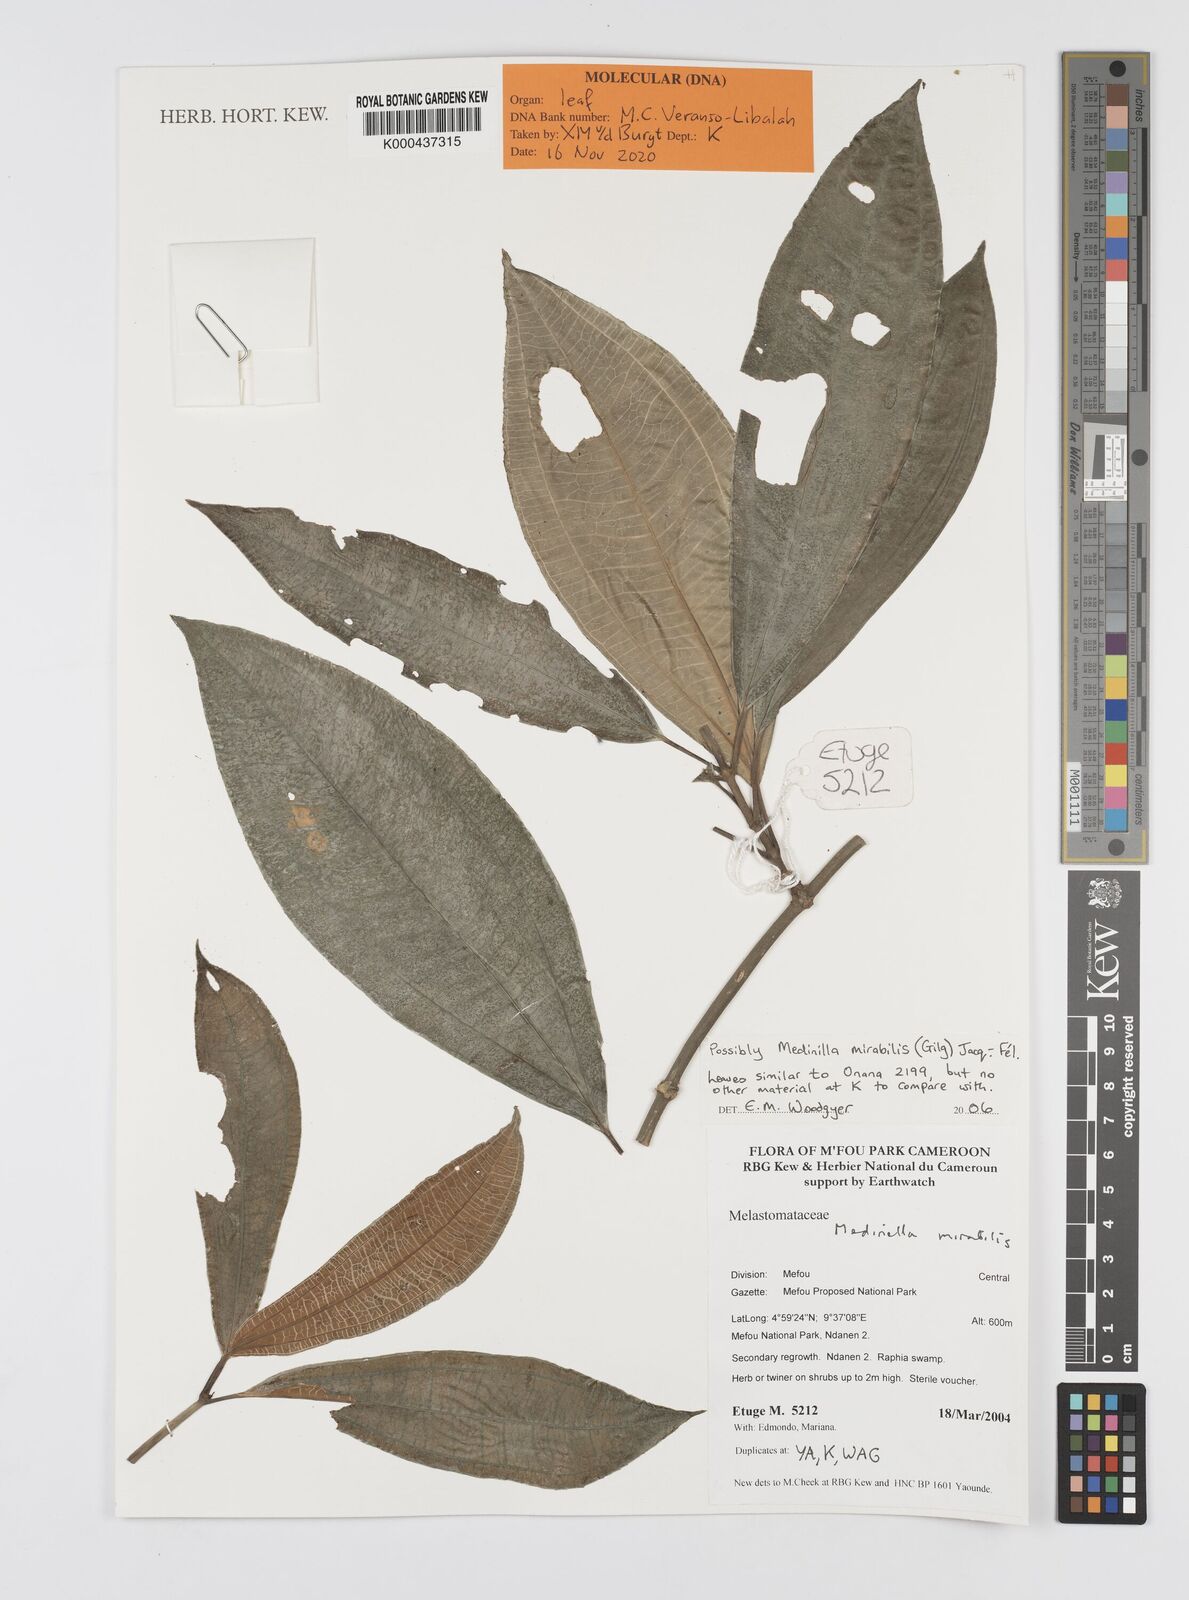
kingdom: Plantae
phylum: Tracheophyta
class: Magnoliopsida
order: Myrtales
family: Melastomataceae
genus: Medinilla
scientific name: Medinilla
